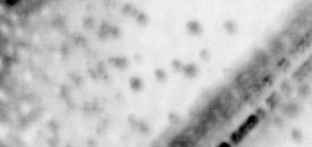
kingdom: Animalia
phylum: Chordata
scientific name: Chordata
